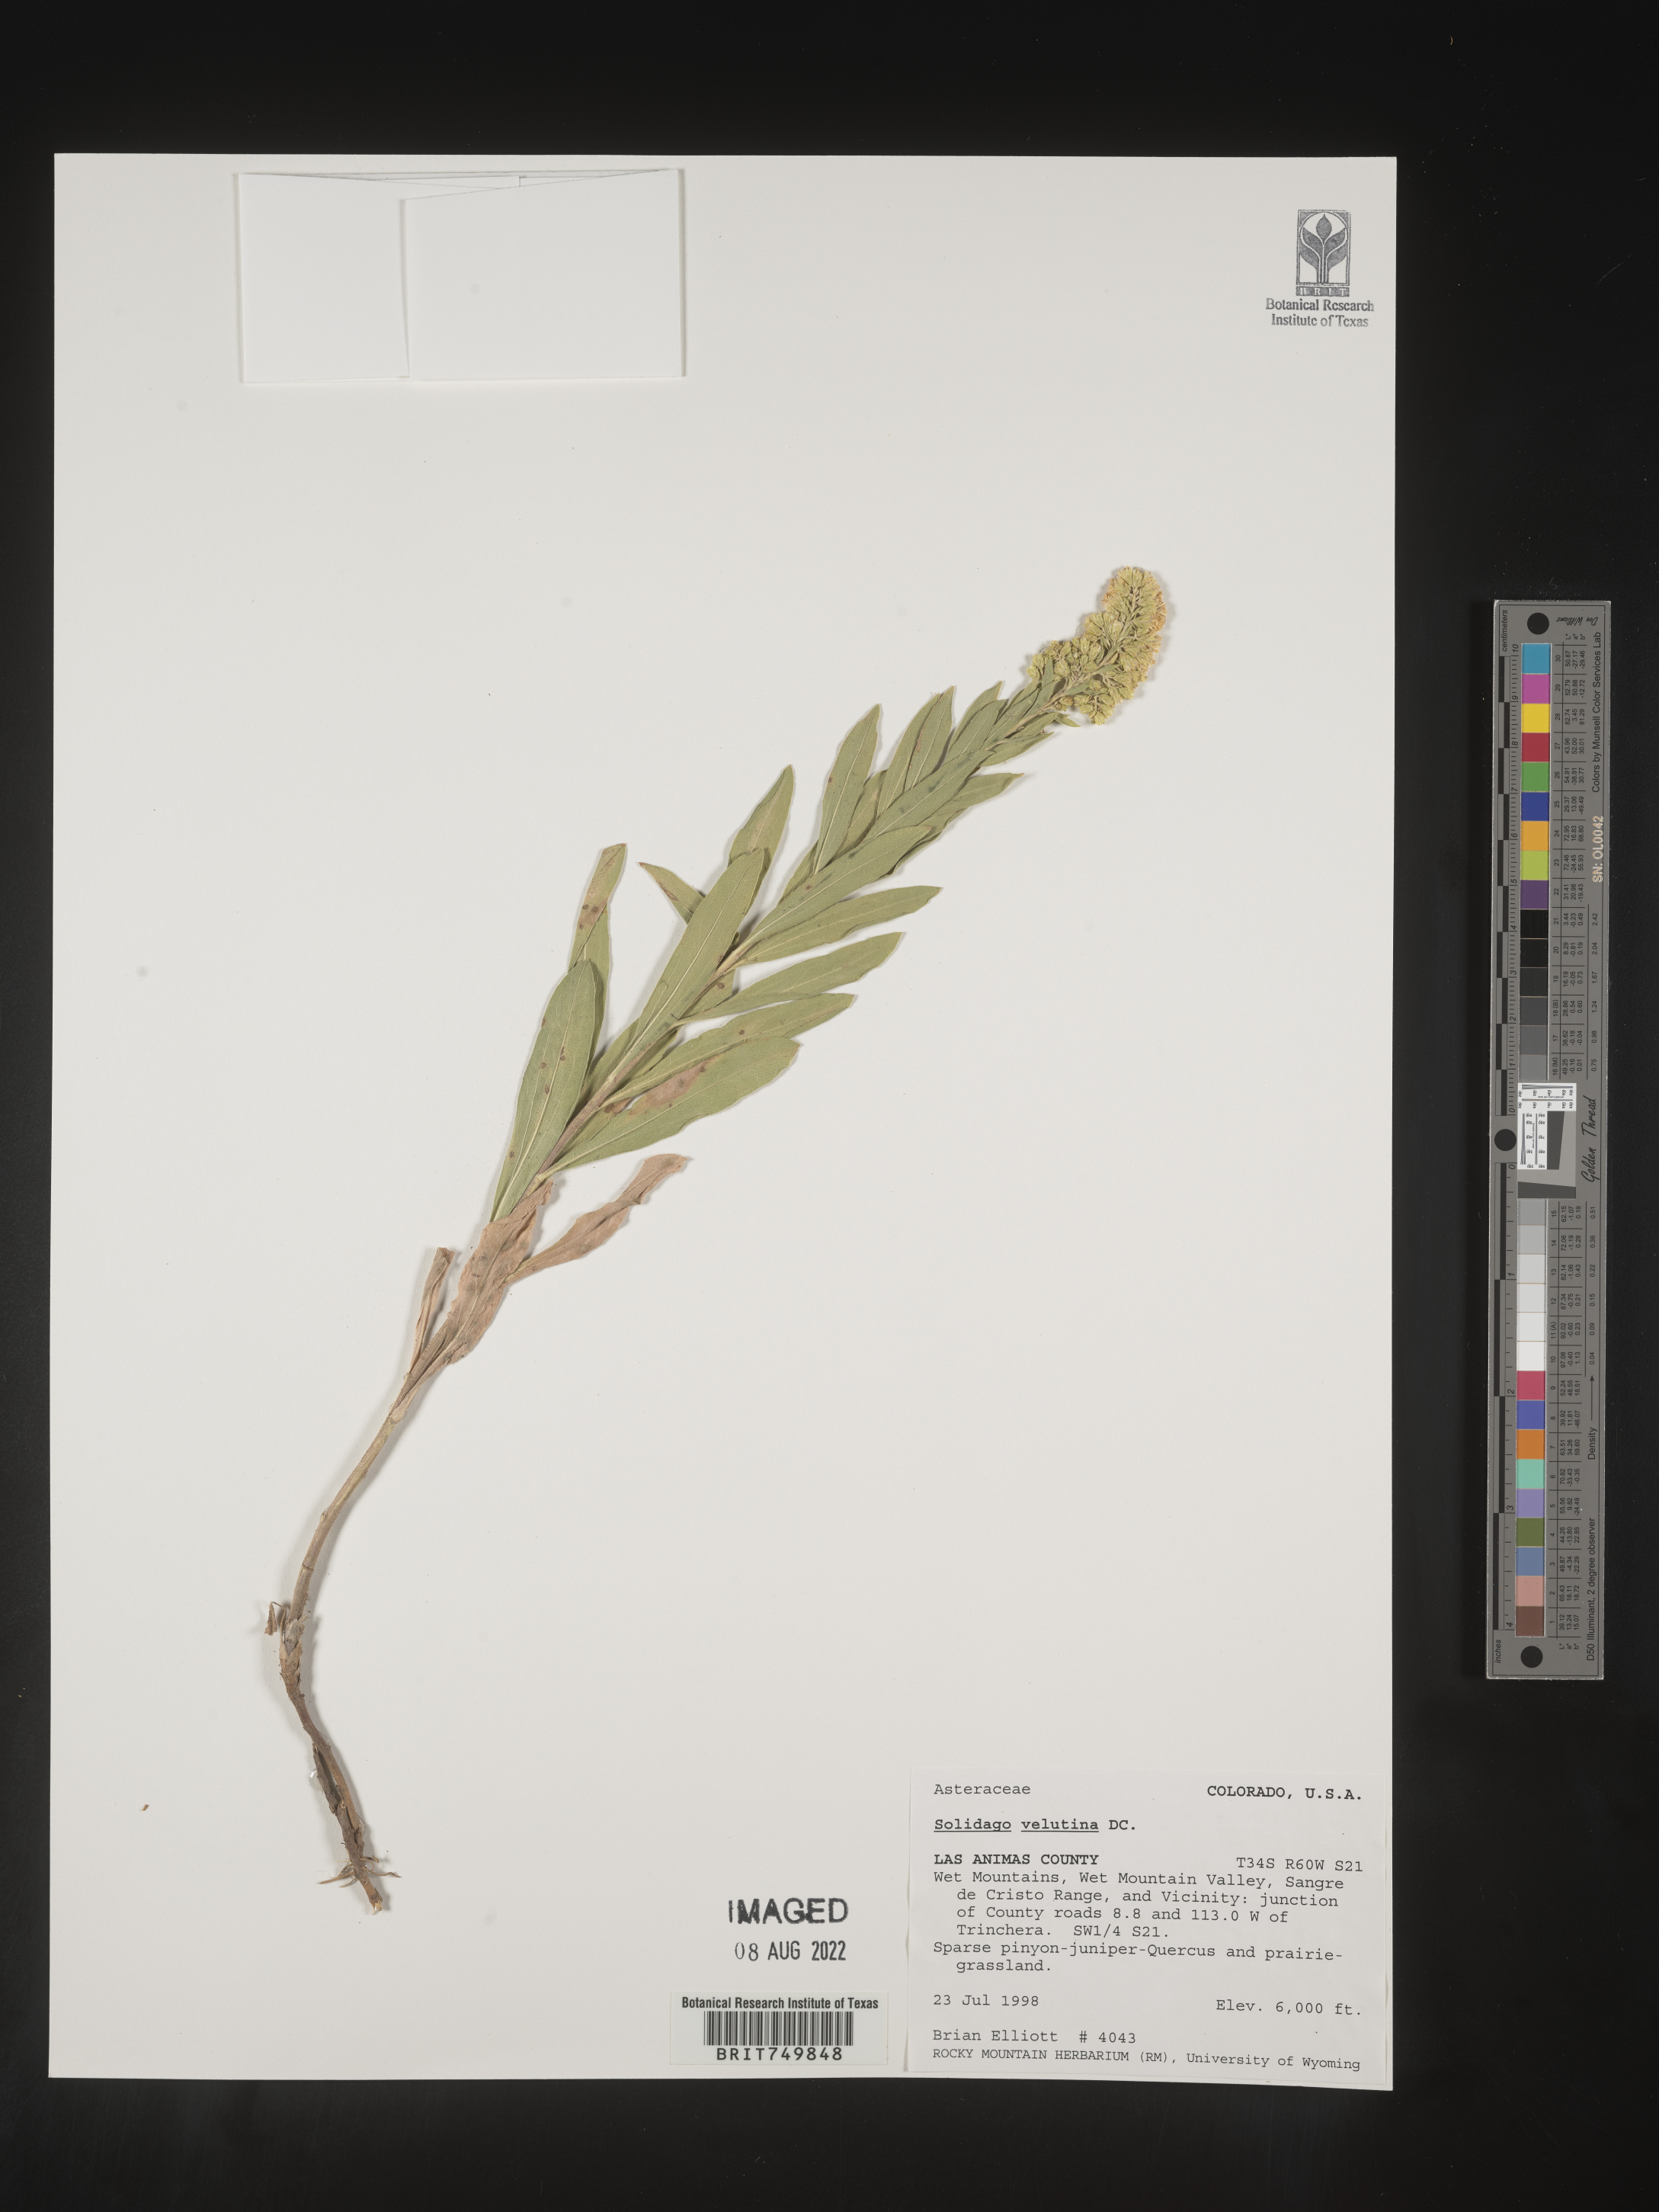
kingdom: Plantae
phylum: Tracheophyta
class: Magnoliopsida
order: Asterales
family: Asteraceae
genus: Solidago
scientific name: Solidago velutina
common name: Three-nerve goldenrod
